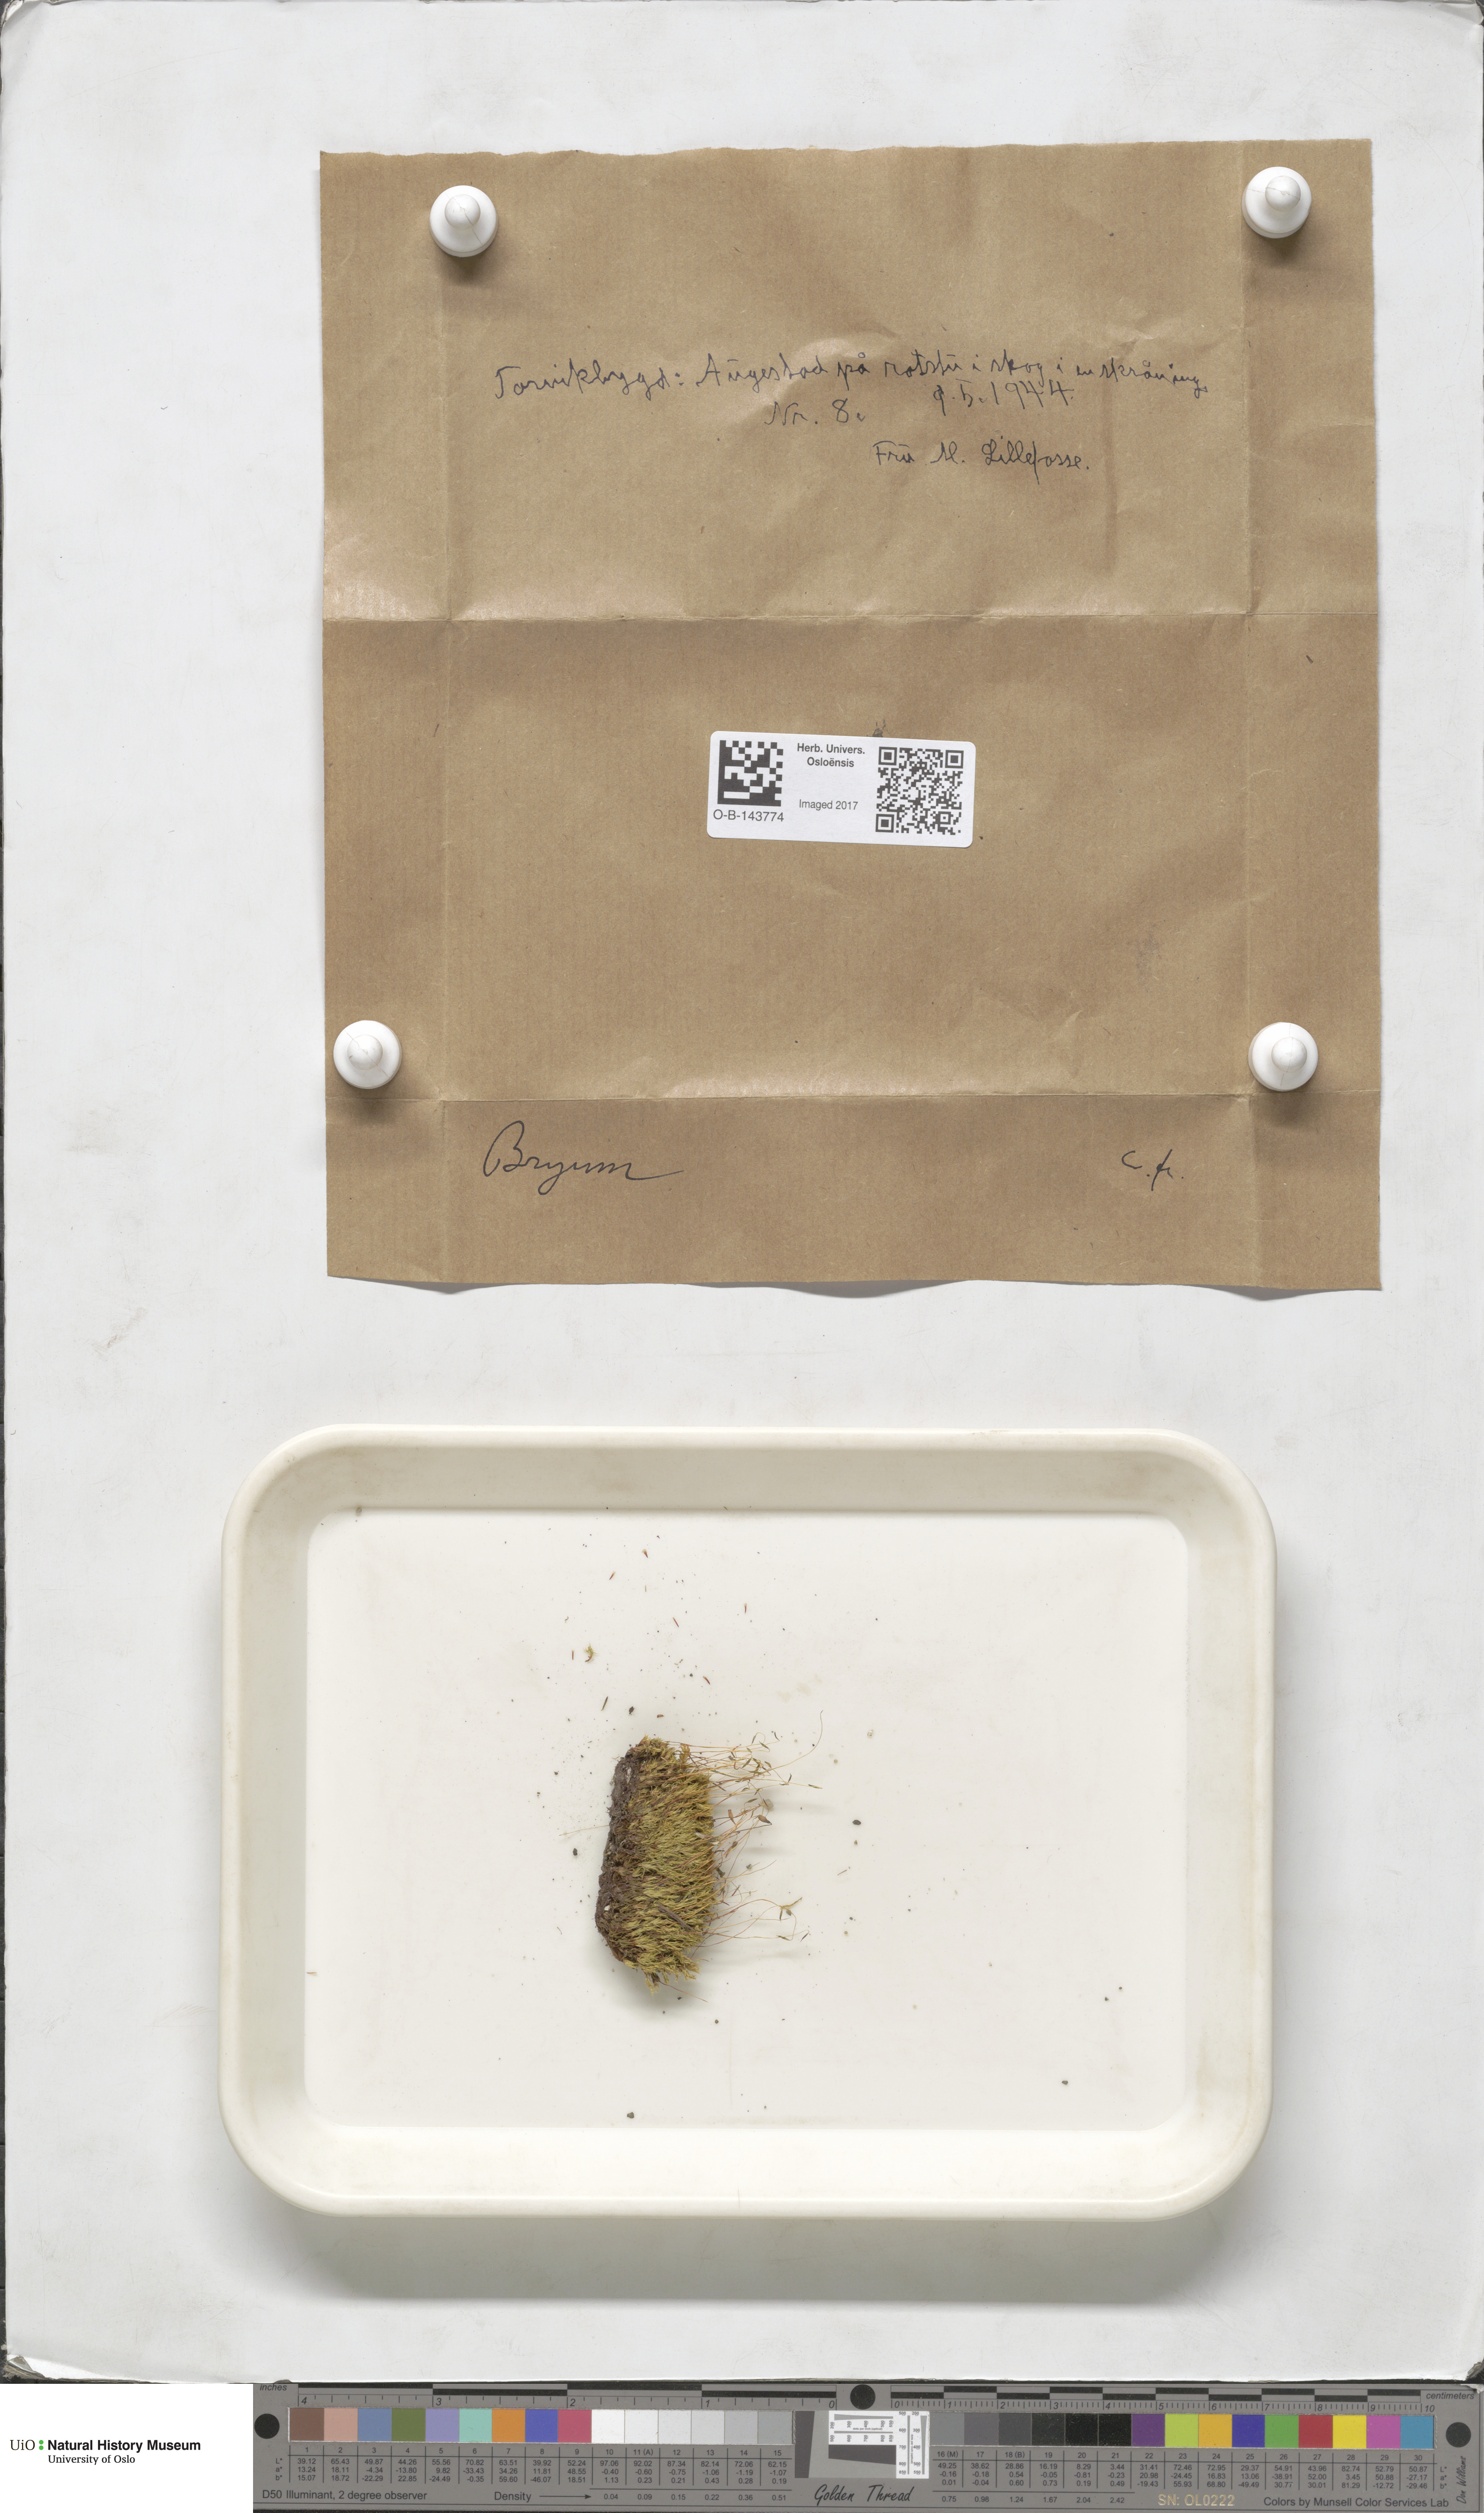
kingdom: Plantae
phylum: Bryophyta
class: Bryopsida
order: Bryales
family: Bryaceae
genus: Bryum
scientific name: Bryum
